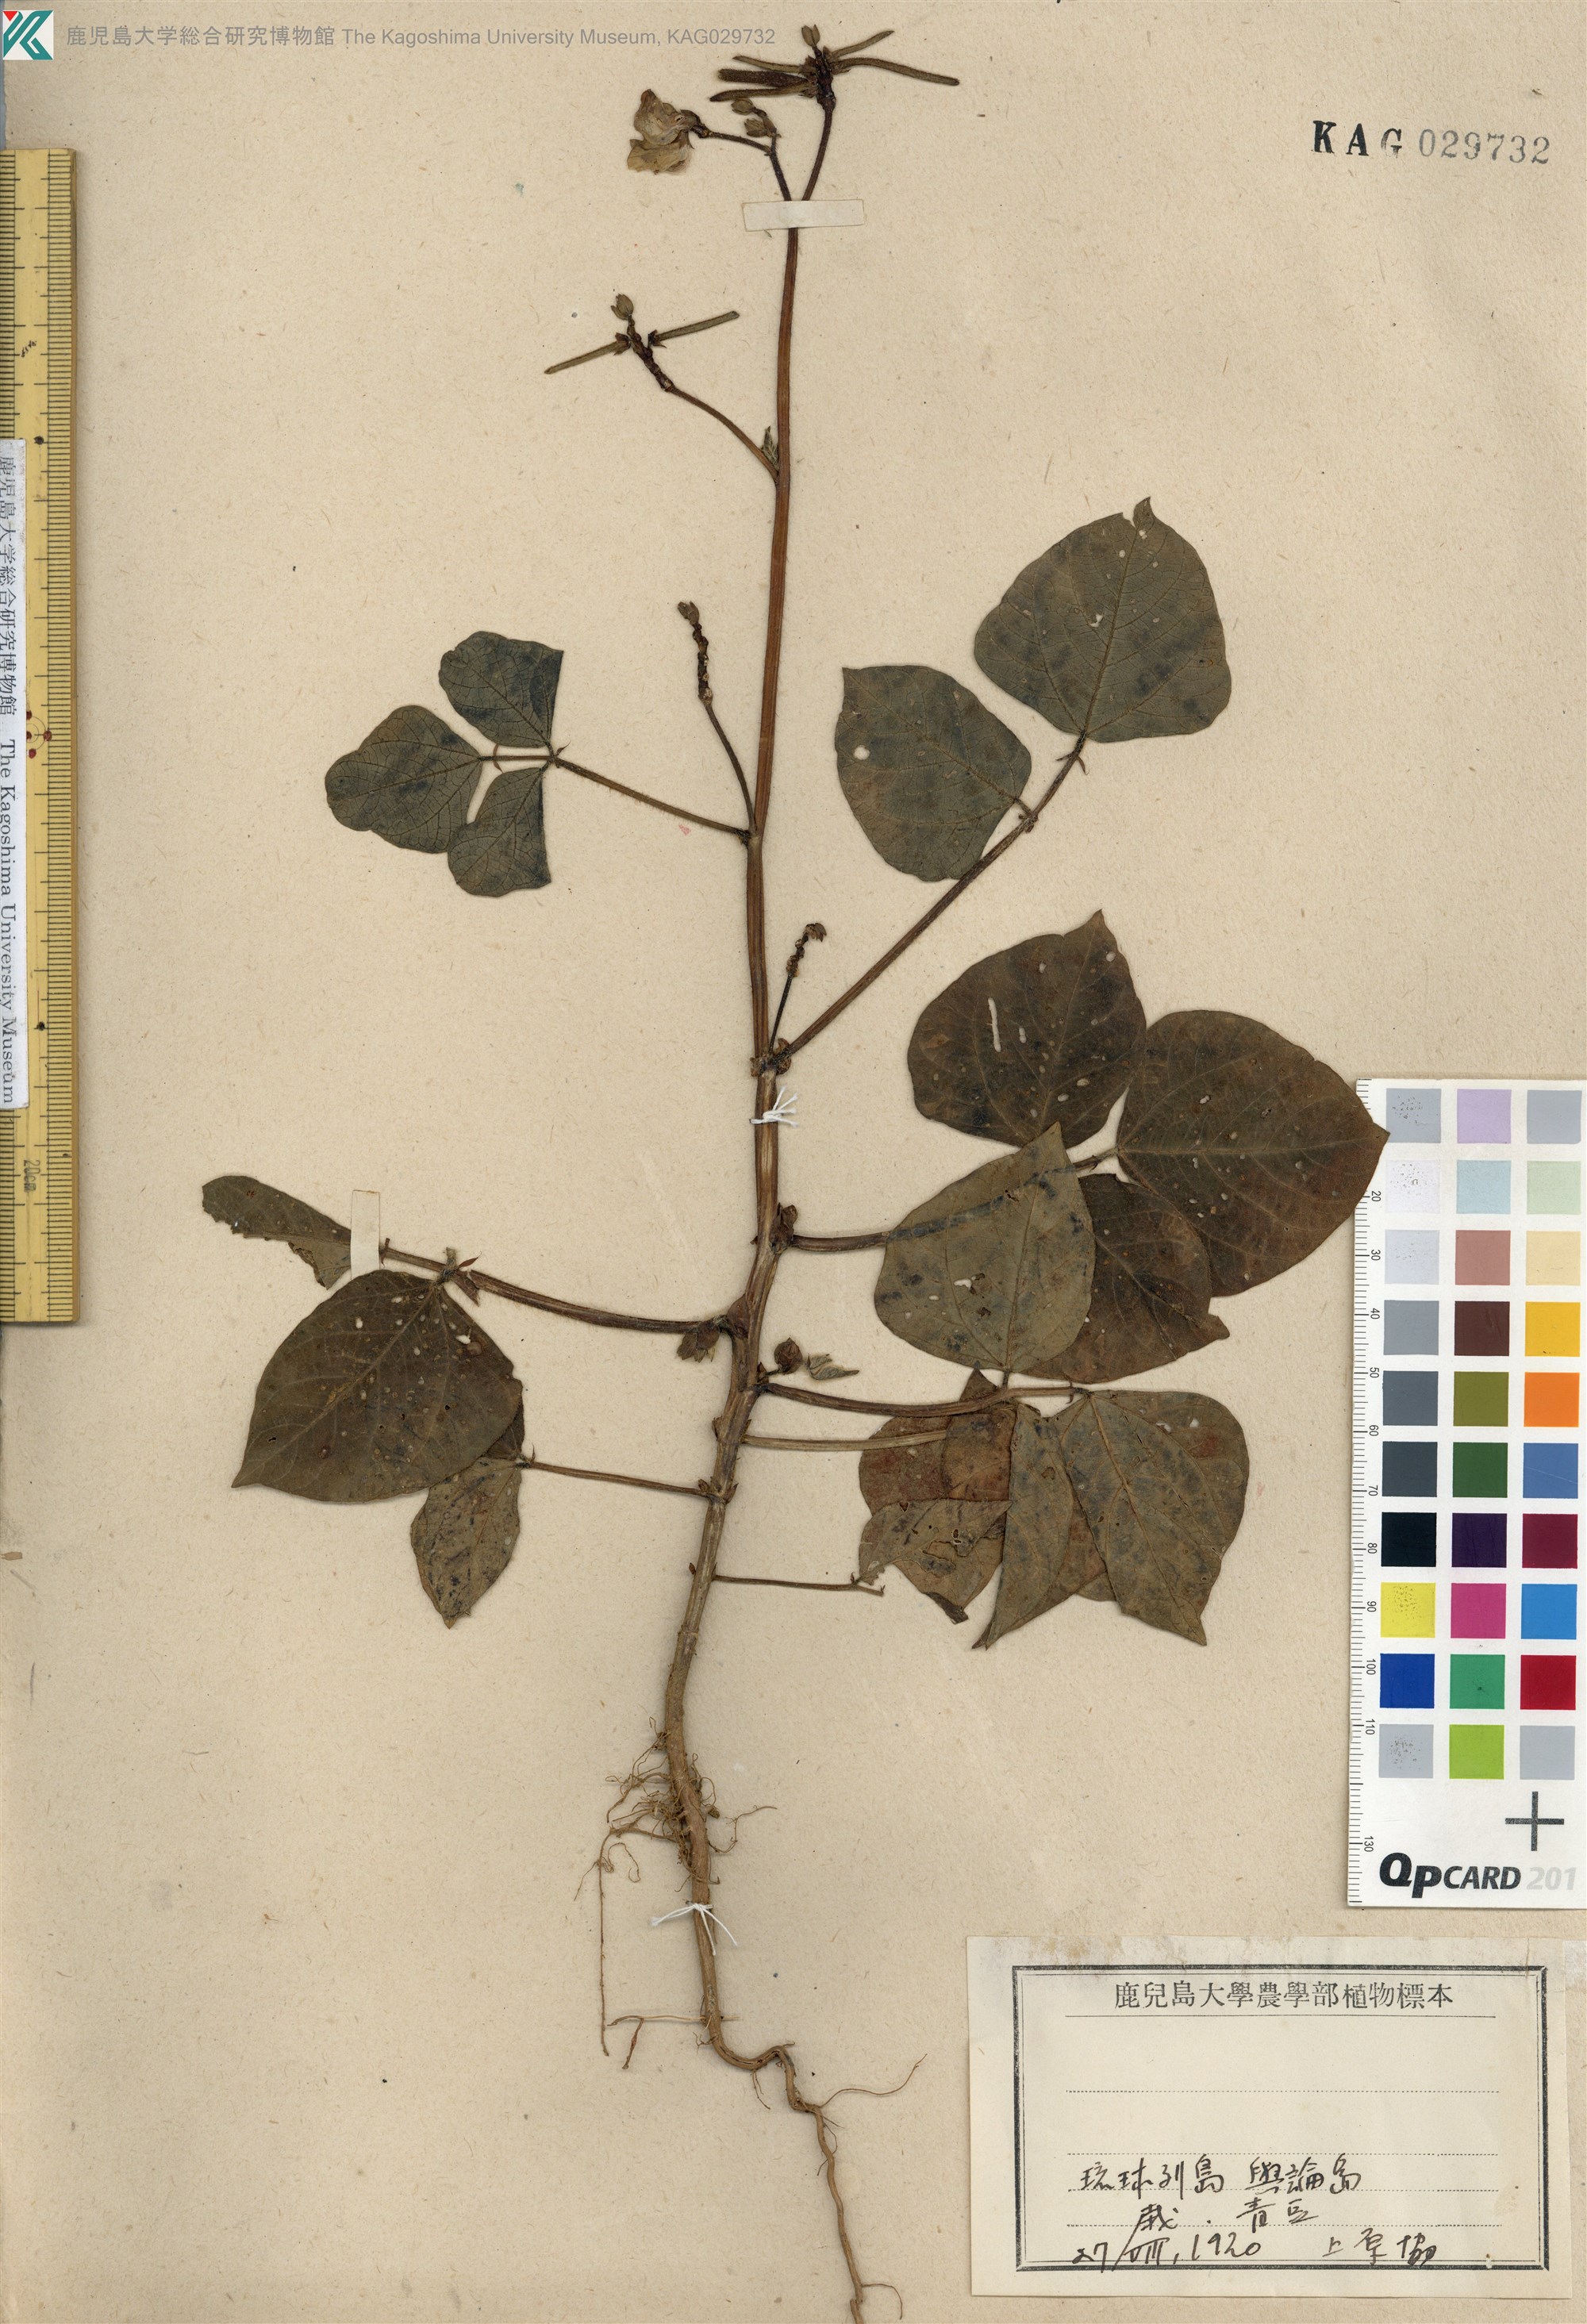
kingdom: Plantae
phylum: Tracheophyta
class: Magnoliopsida
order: Fabales
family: Fabaceae
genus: Vigna
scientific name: Vigna radiata
